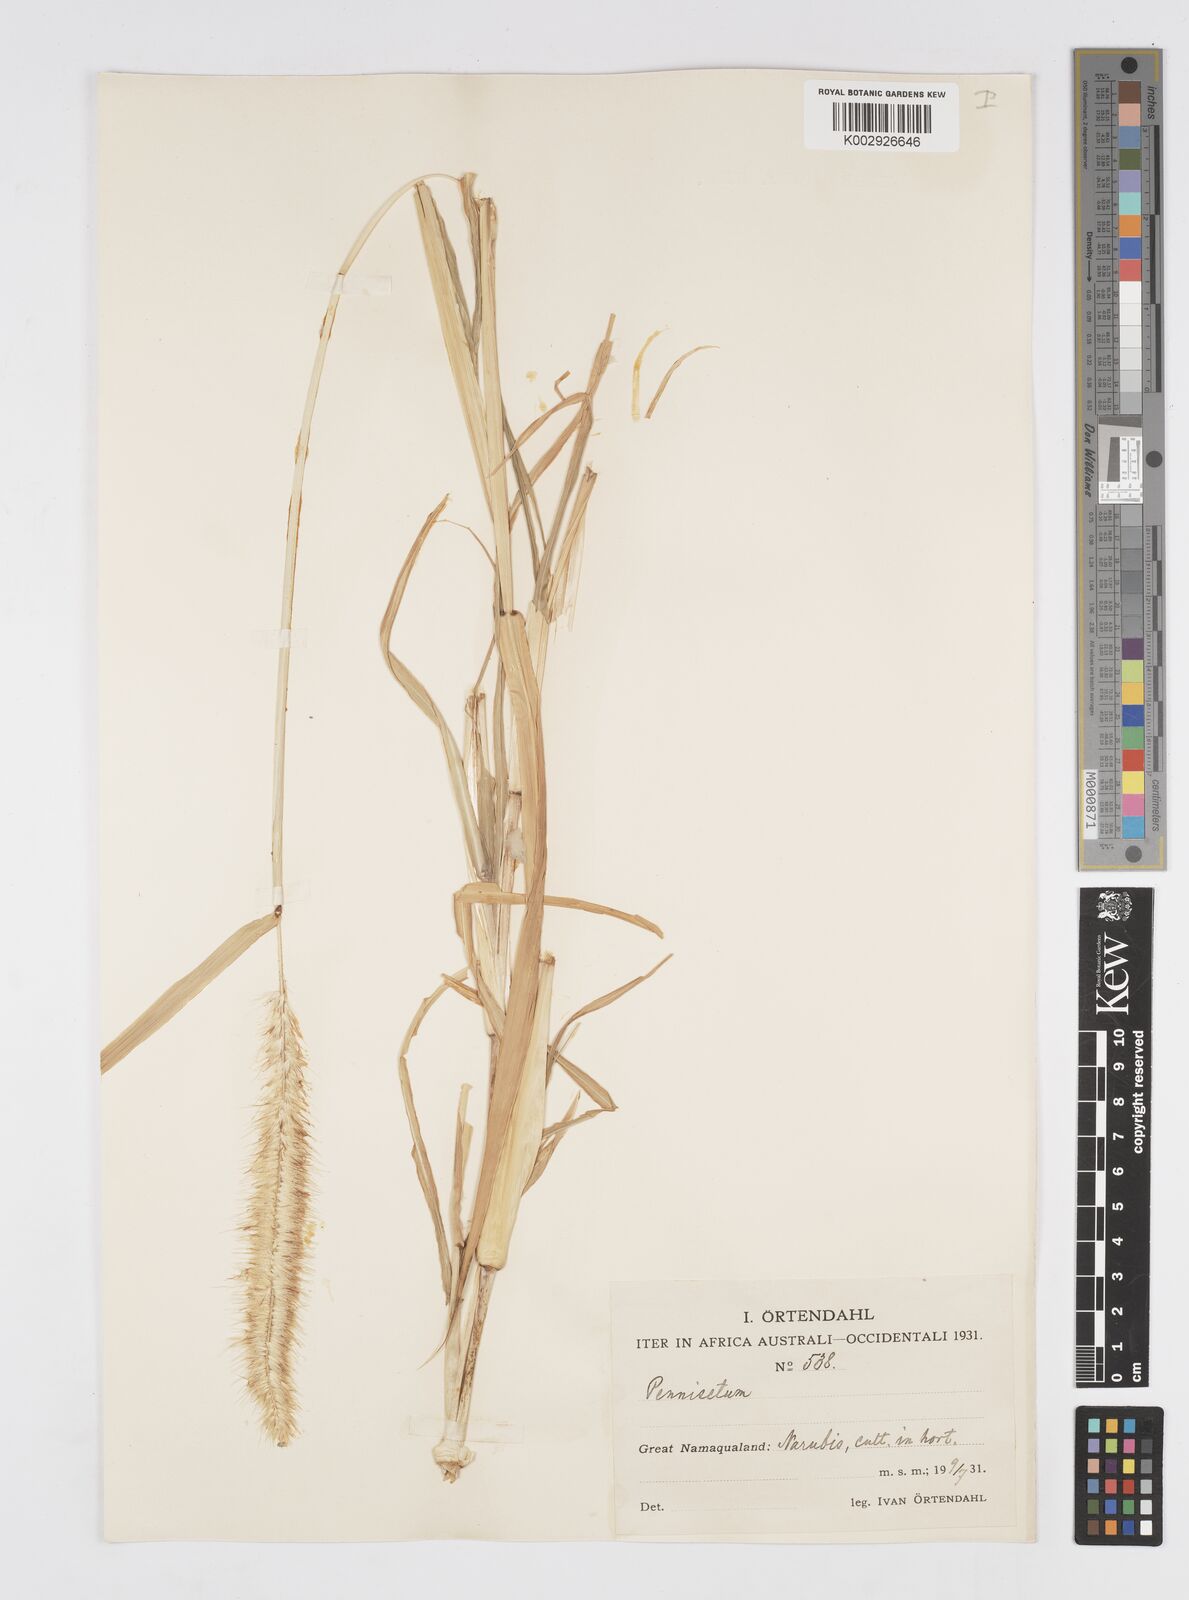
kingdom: Plantae
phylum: Tracheophyta
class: Liliopsida
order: Poales
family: Poaceae
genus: Cenchrus
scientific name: Cenchrus purpureus
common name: Elephant grass
